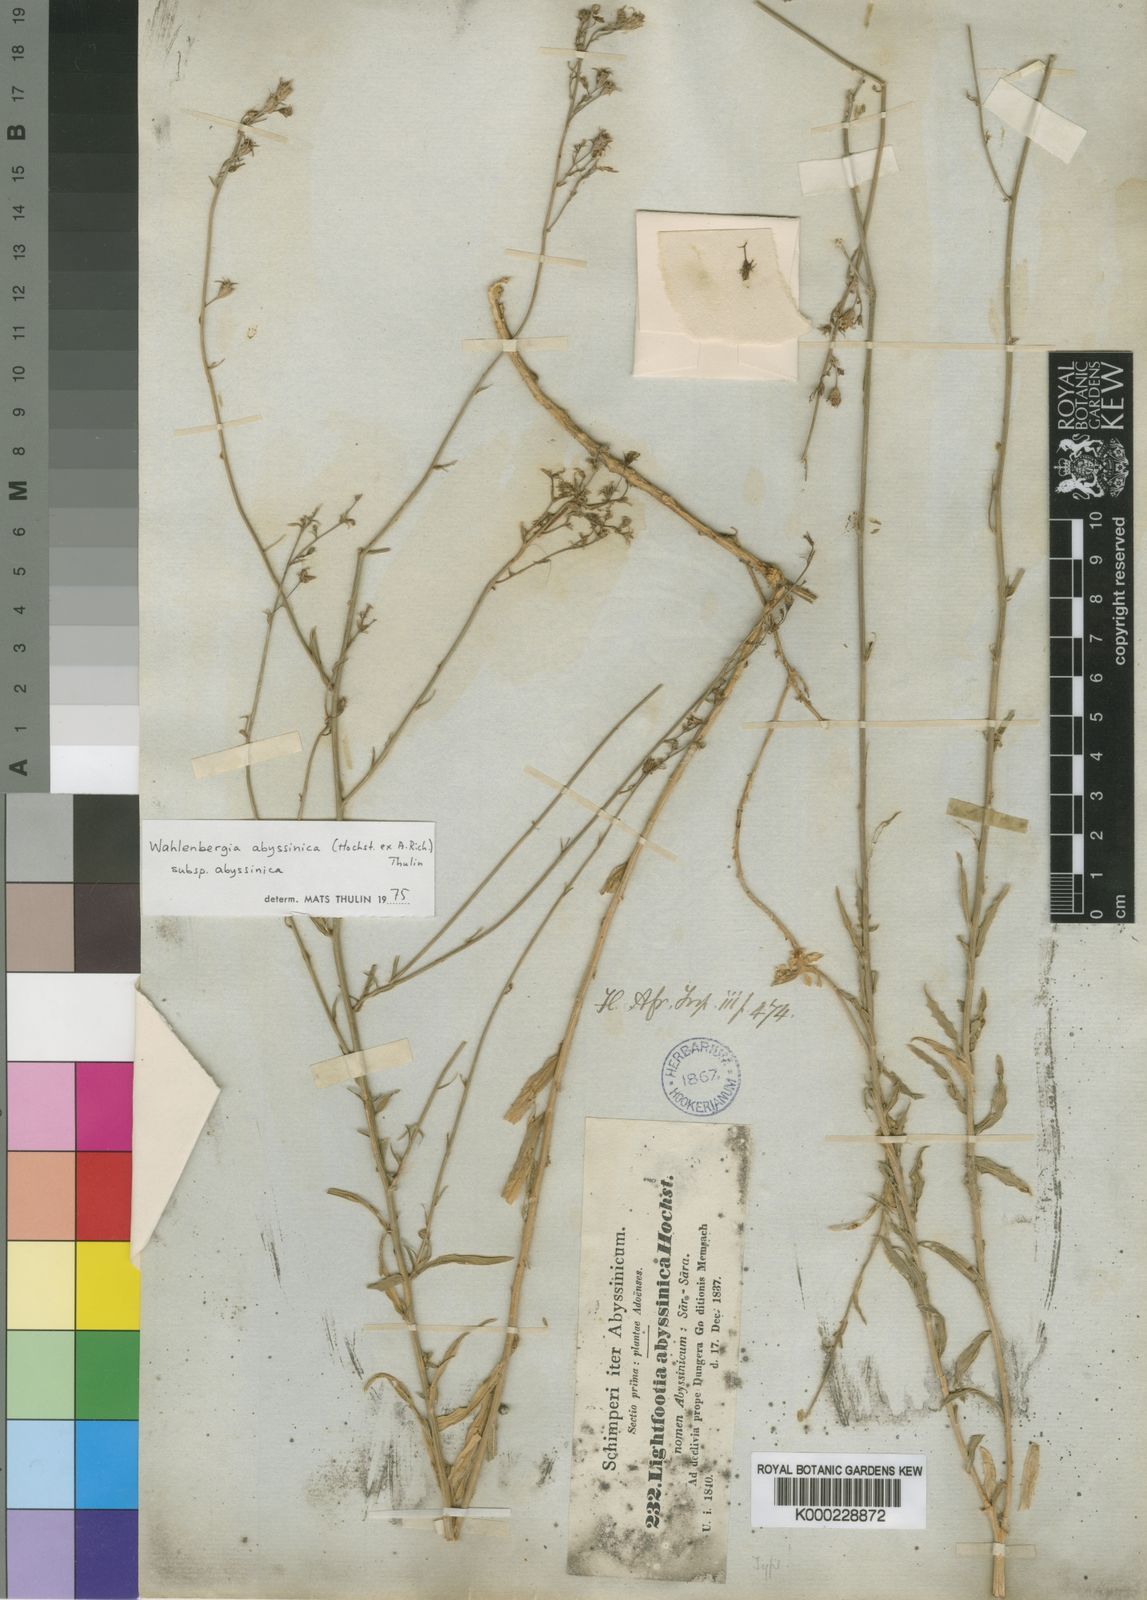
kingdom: Plantae
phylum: Tracheophyta
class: Magnoliopsida
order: Asterales
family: Campanulaceae
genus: Wahlenbergia
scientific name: Wahlenbergia abyssinica
